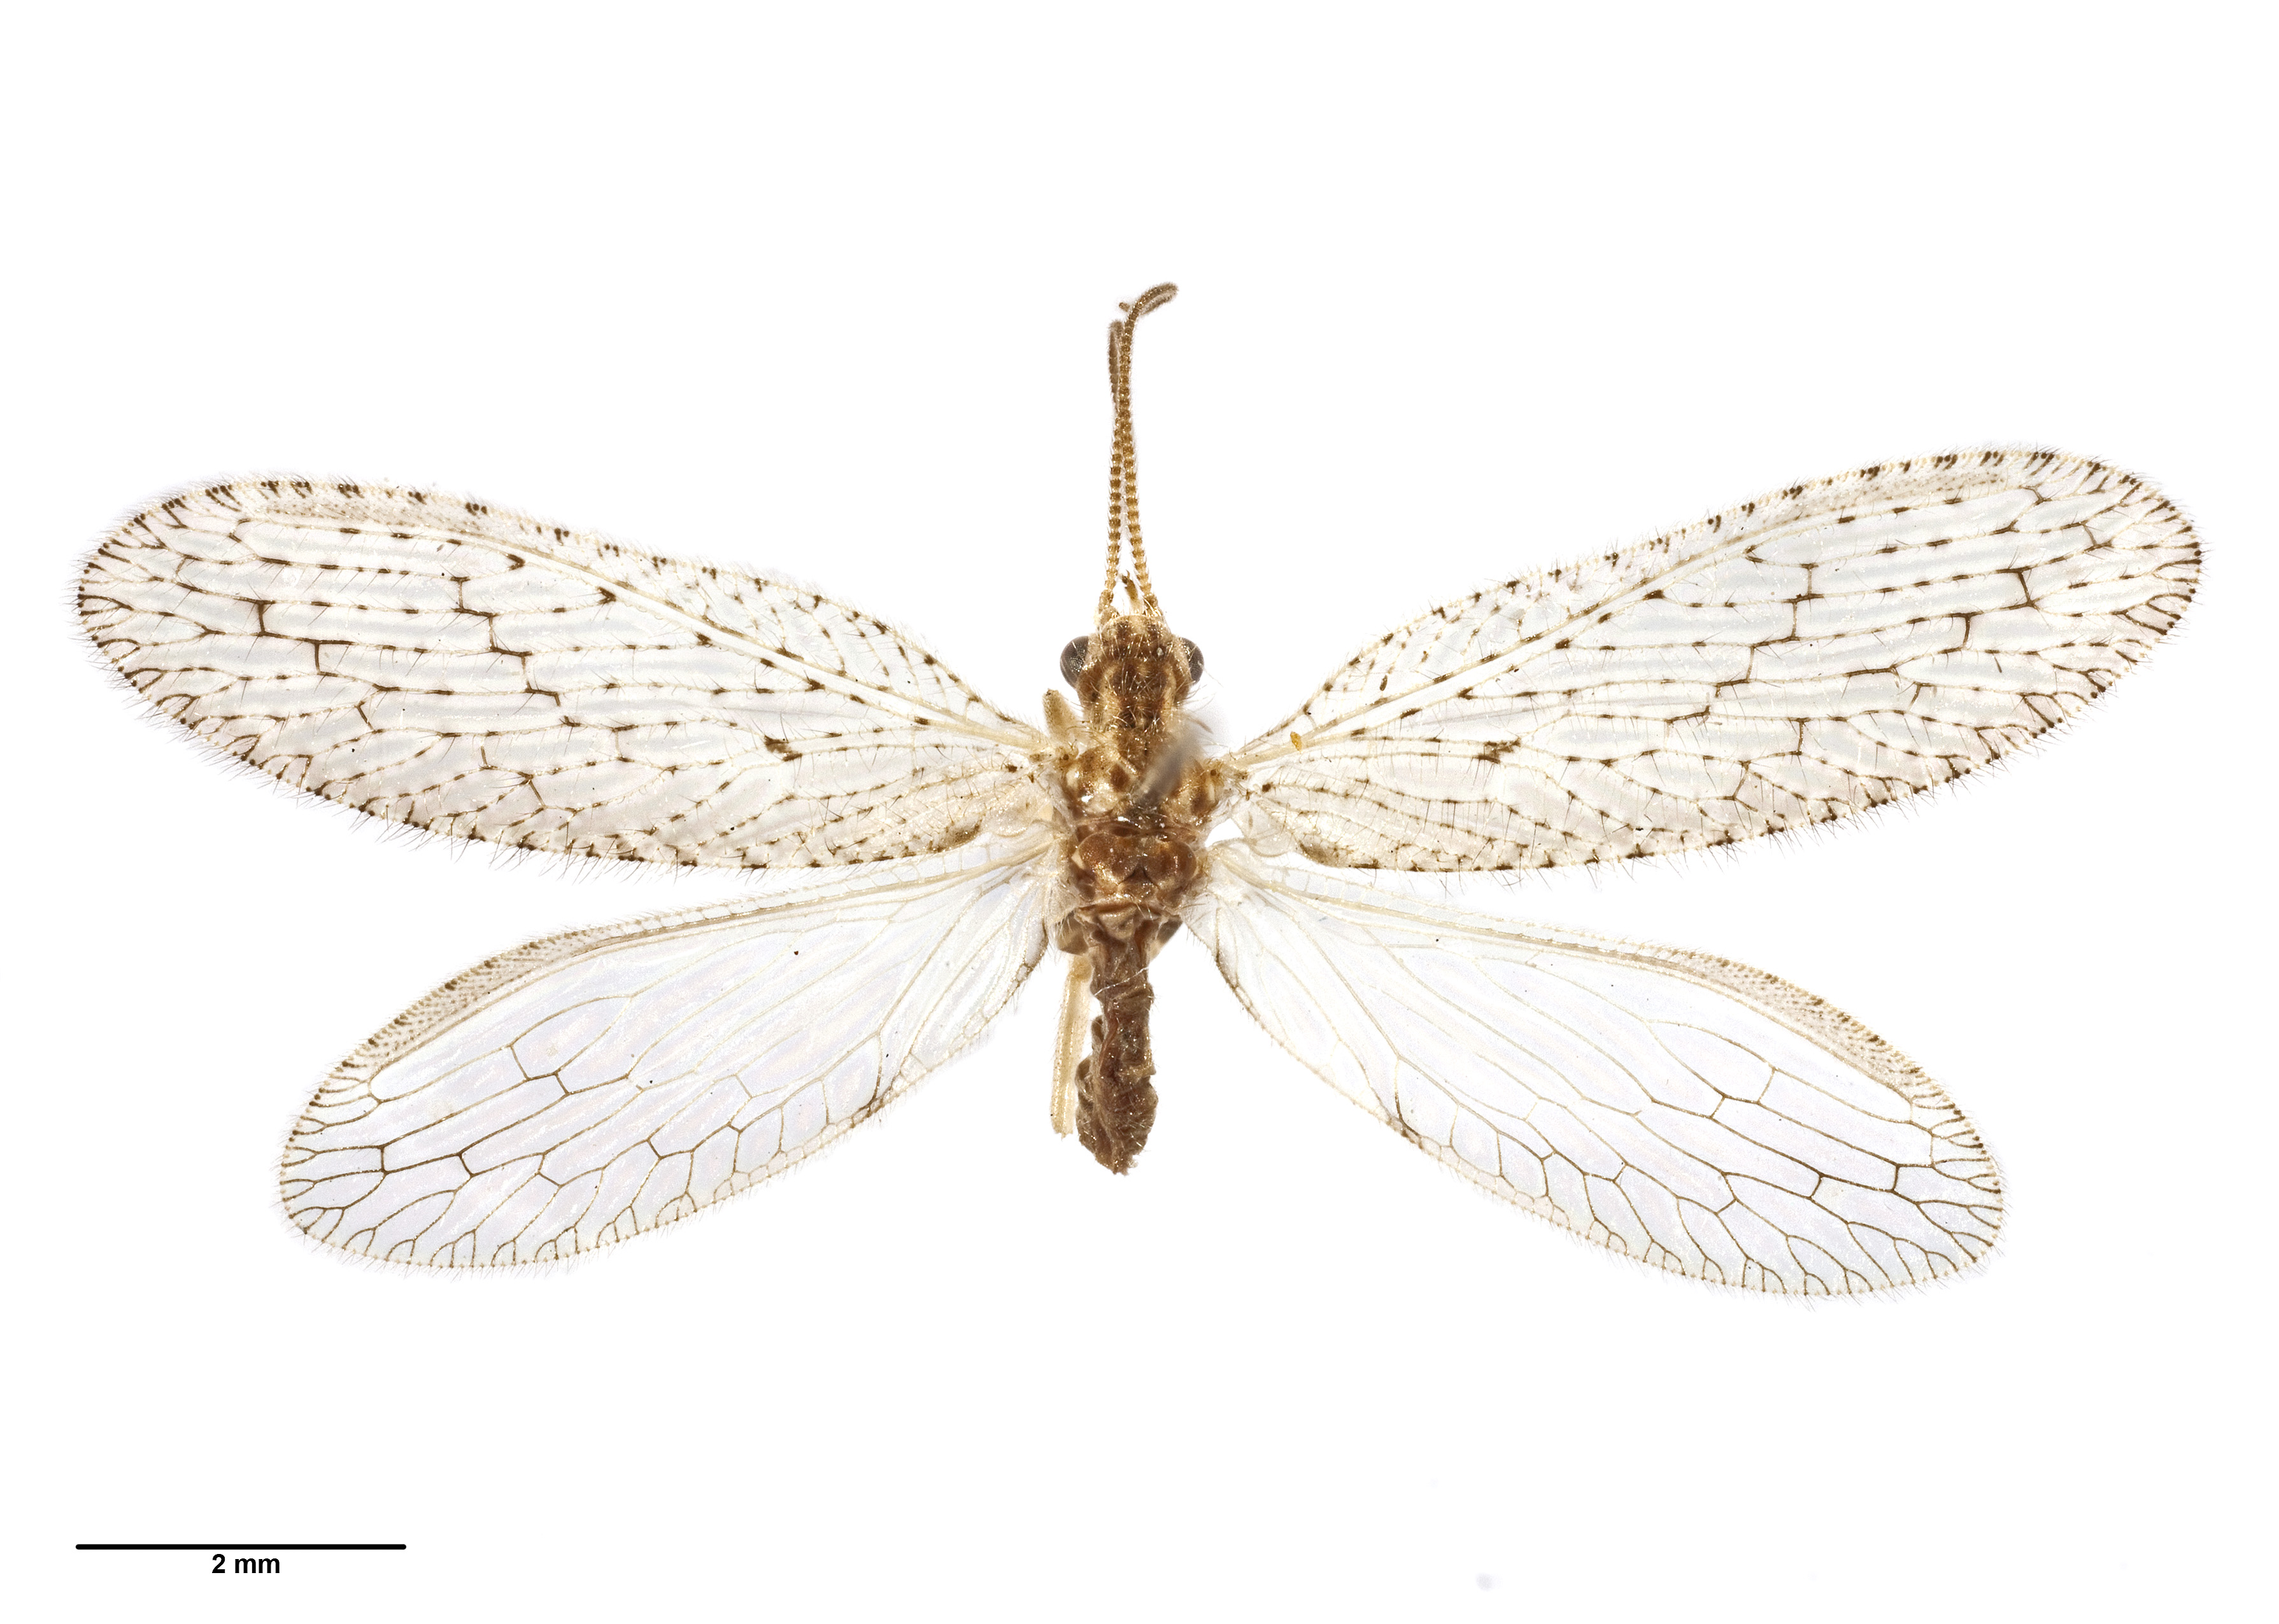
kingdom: Animalia
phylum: Arthropoda
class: Insecta
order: Neuroptera
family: Hemerobiidae
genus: Micromus
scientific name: Micromus tasmaniae
